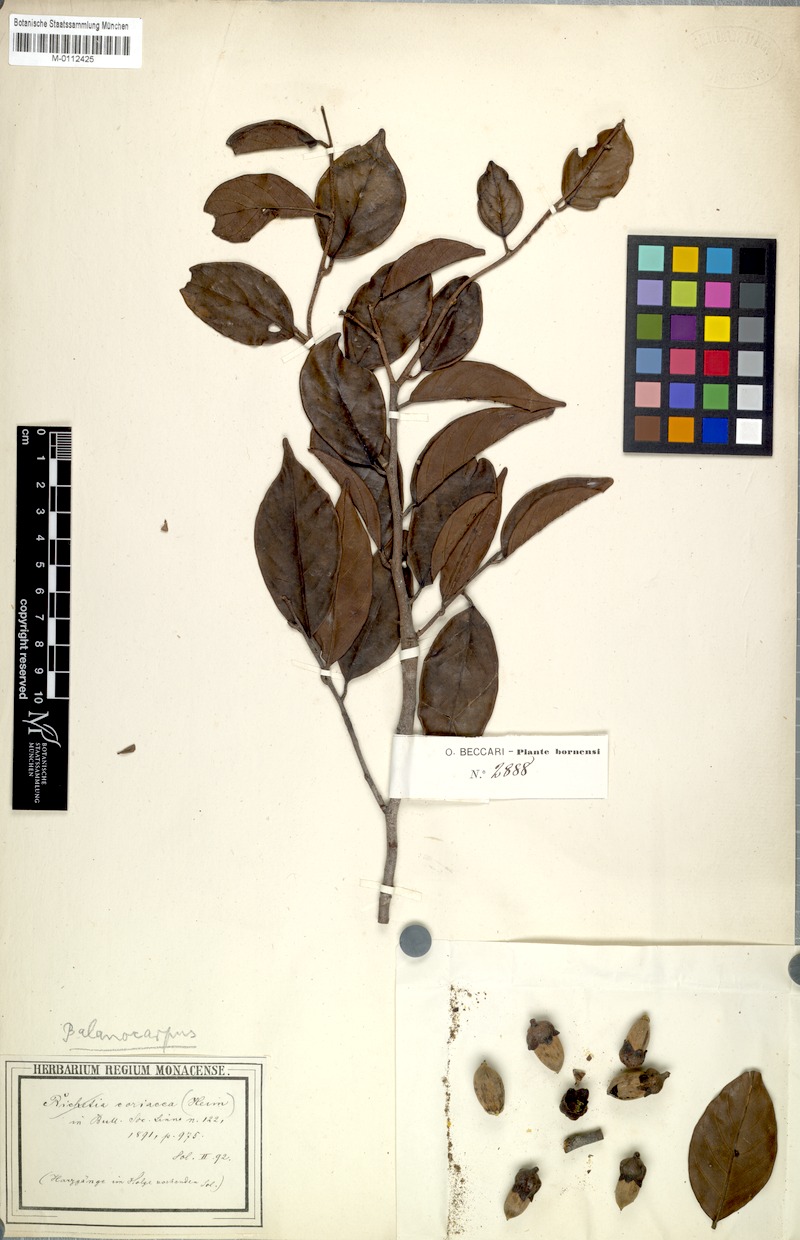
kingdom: Plantae
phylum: Tracheophyta
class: Magnoliopsida
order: Malvales
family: Dipterocarpaceae
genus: Shorea
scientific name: Shorea richetia
